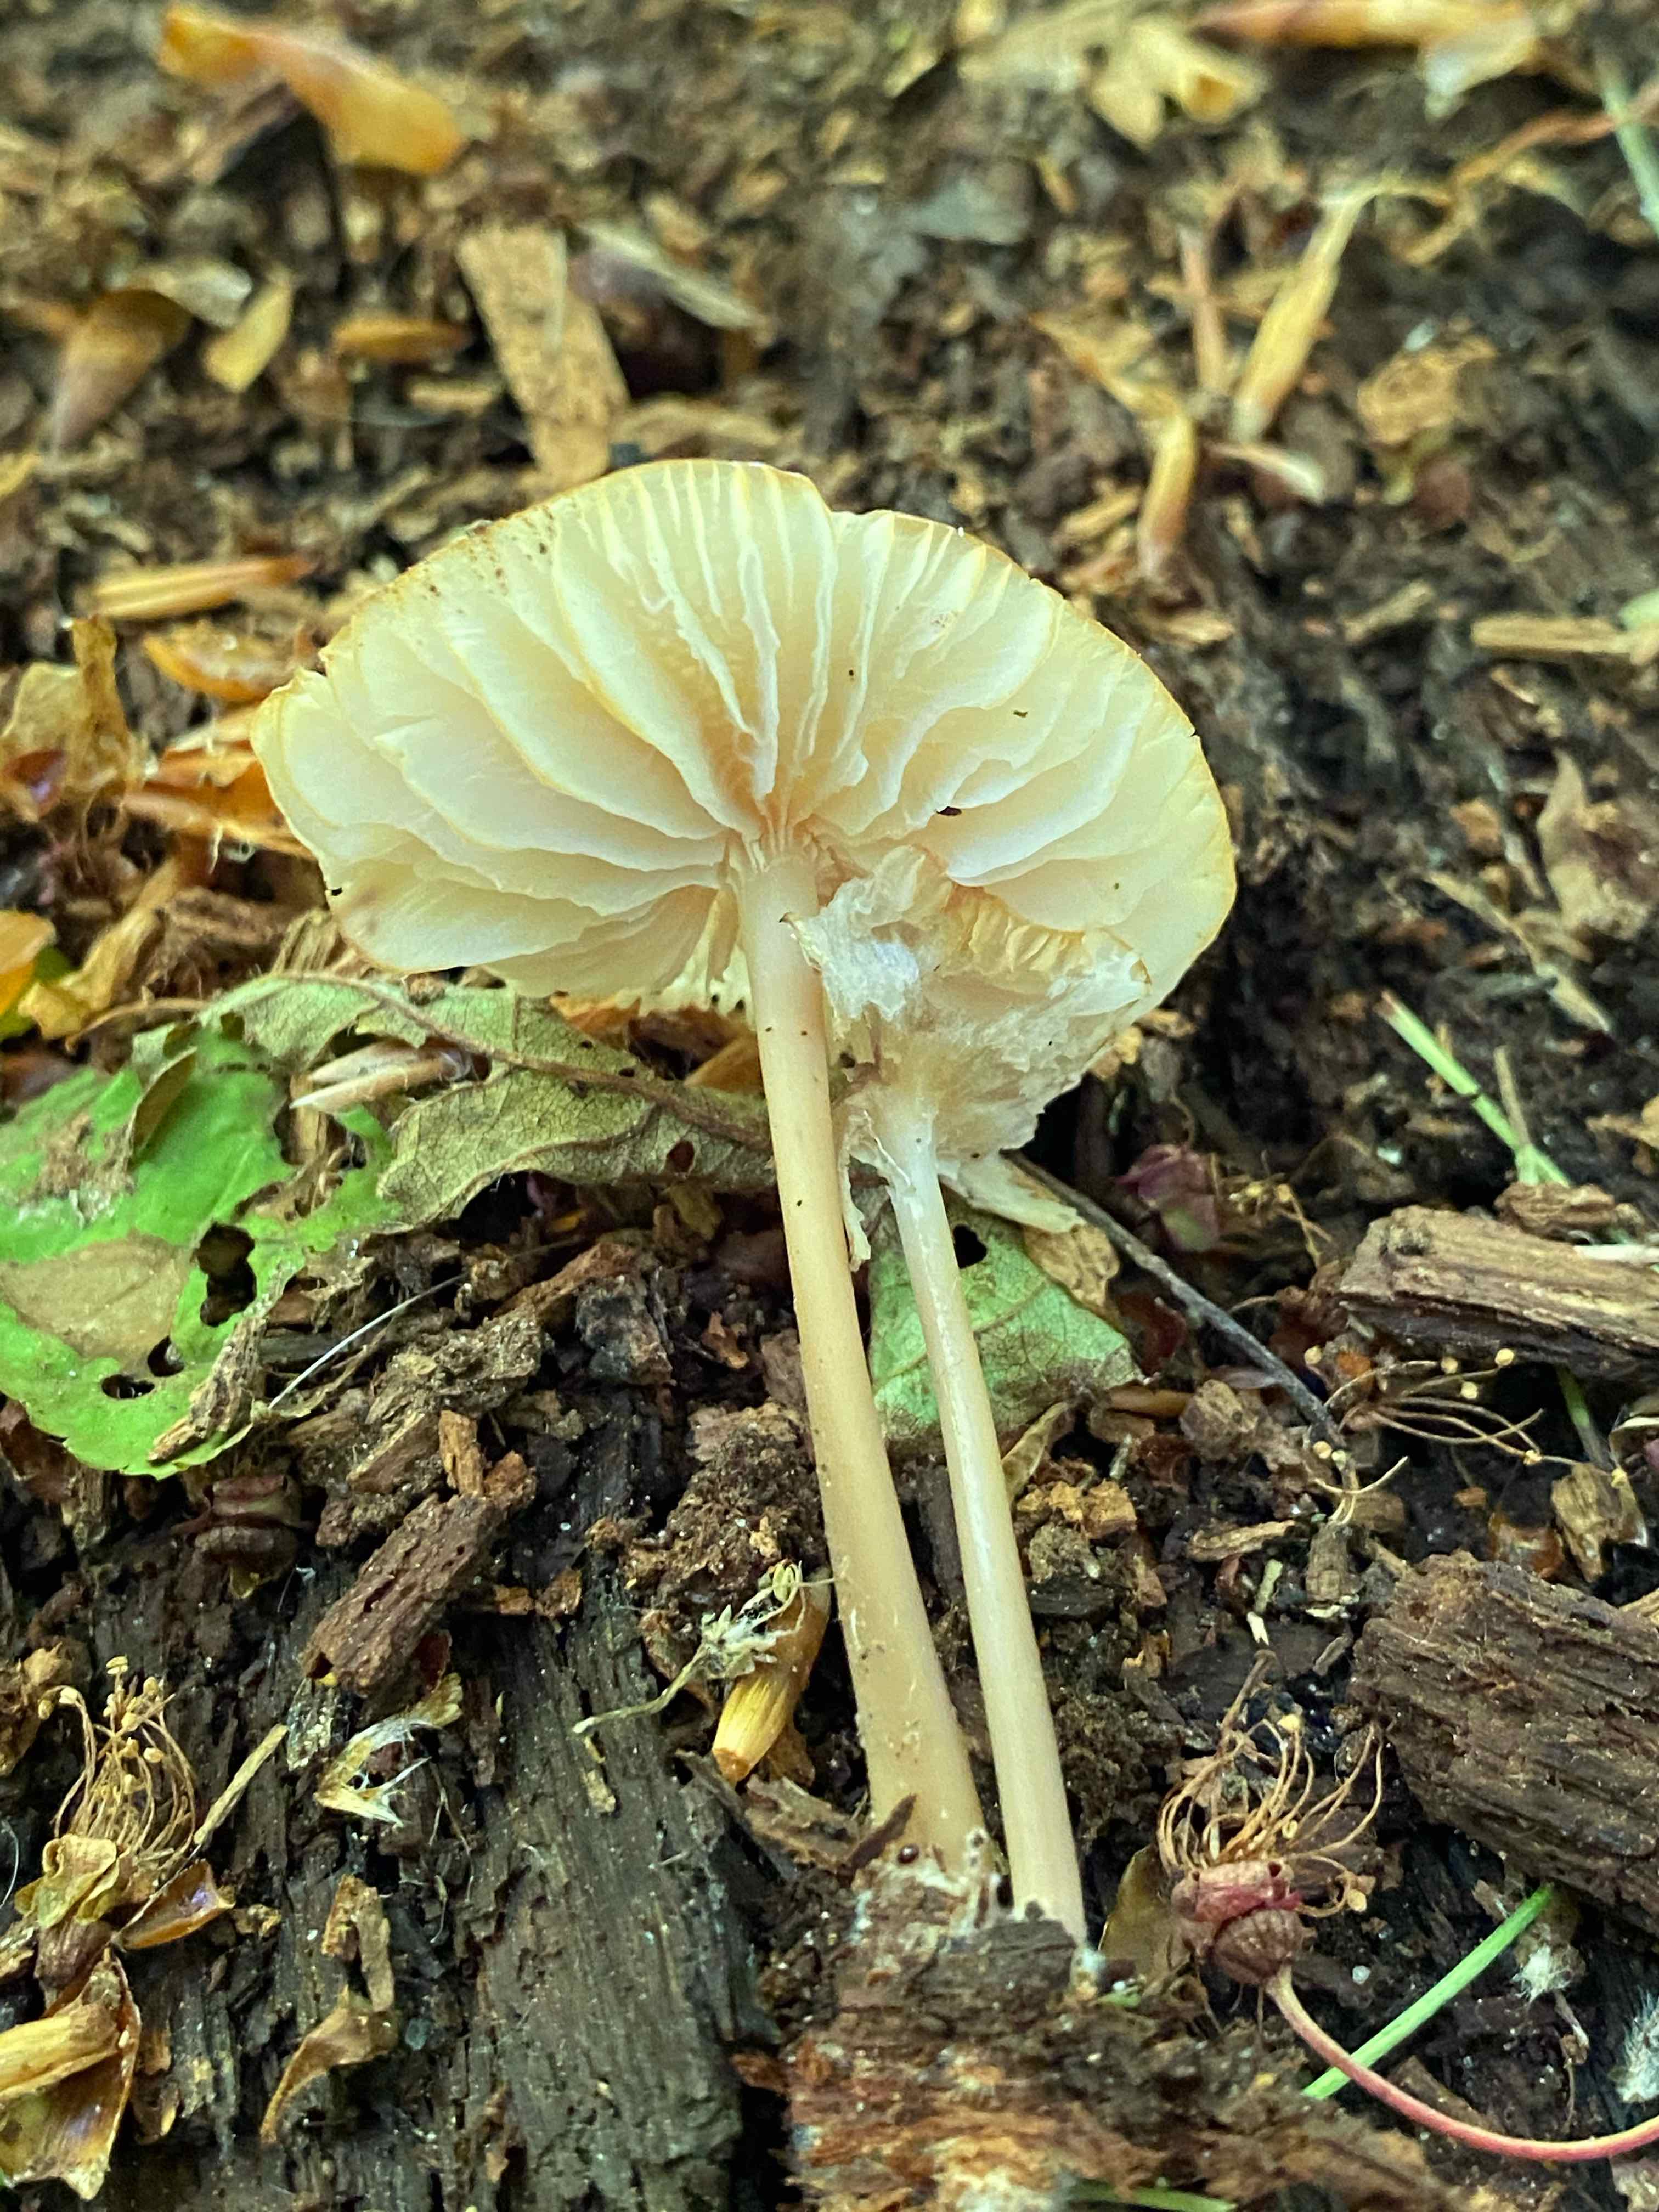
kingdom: Fungi
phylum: Basidiomycota
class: Agaricomycetes
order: Agaricales
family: Mycenaceae
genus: Mycena
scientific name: Mycena galericulata
